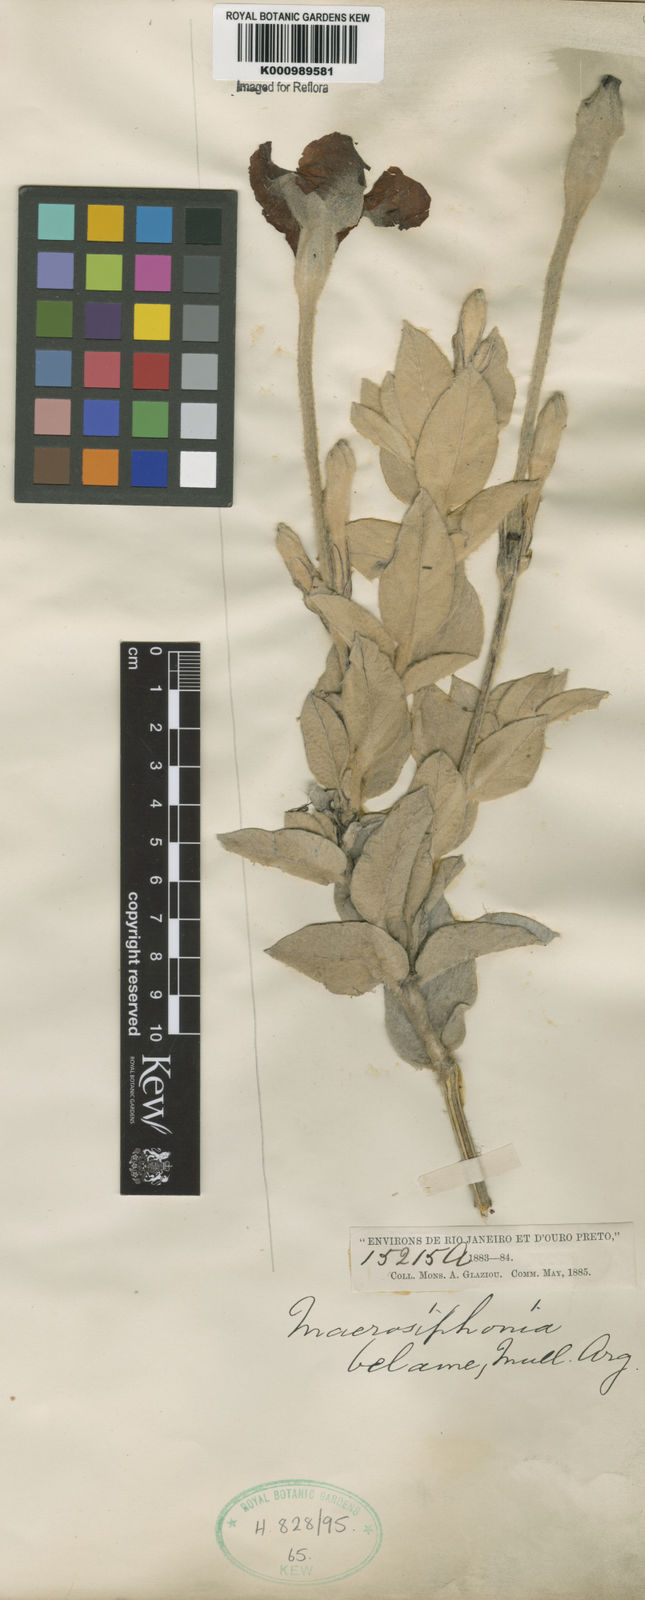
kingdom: Plantae
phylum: Tracheophyta
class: Magnoliopsida
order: Gentianales
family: Apocynaceae
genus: Mandevilla
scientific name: Mandevilla velame
